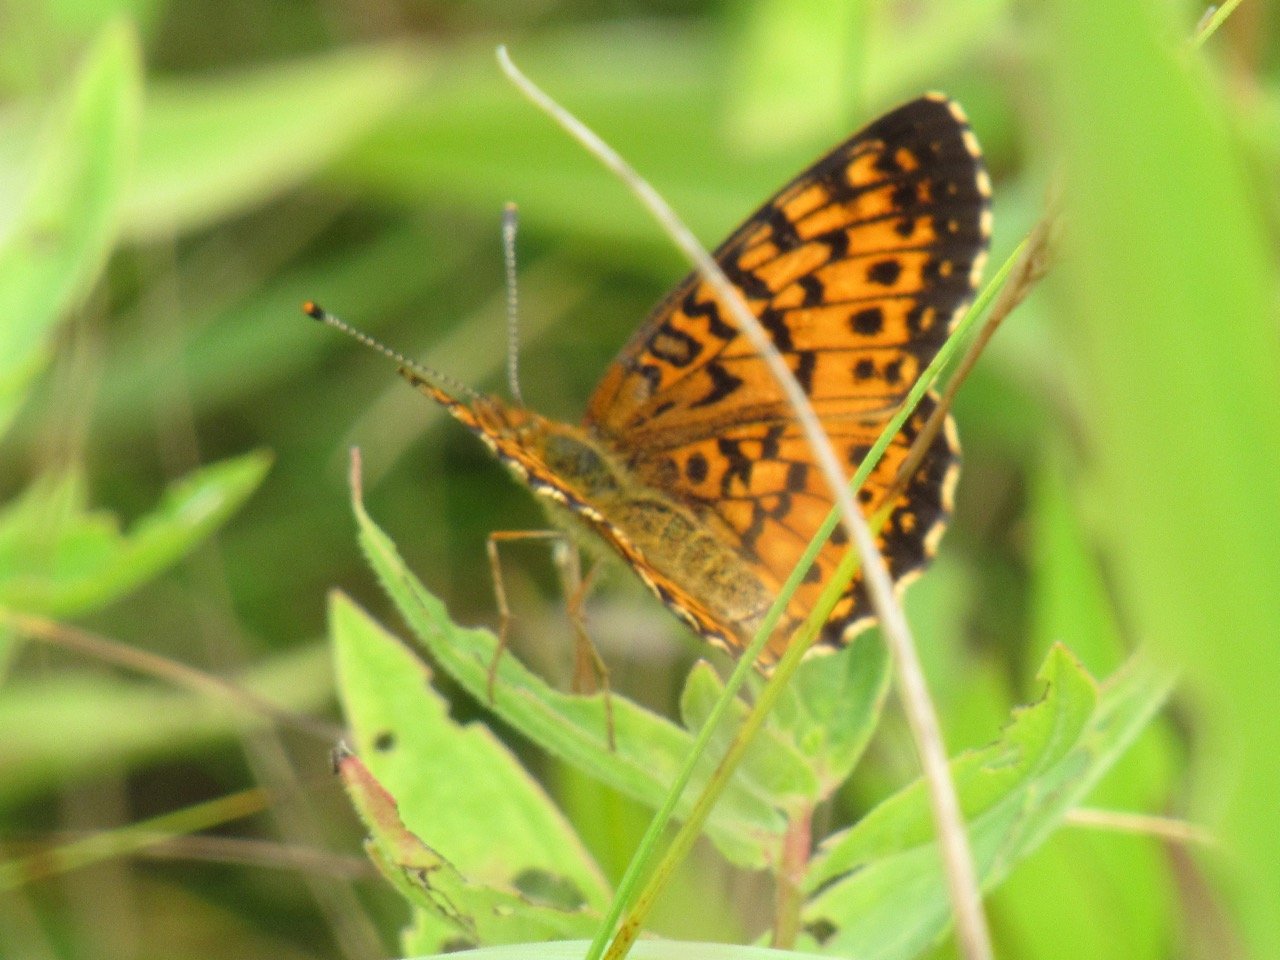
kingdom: Animalia
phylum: Arthropoda
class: Insecta
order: Lepidoptera
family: Nymphalidae
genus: Boloria
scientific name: Boloria selene
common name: Silver-bordered Fritillary
